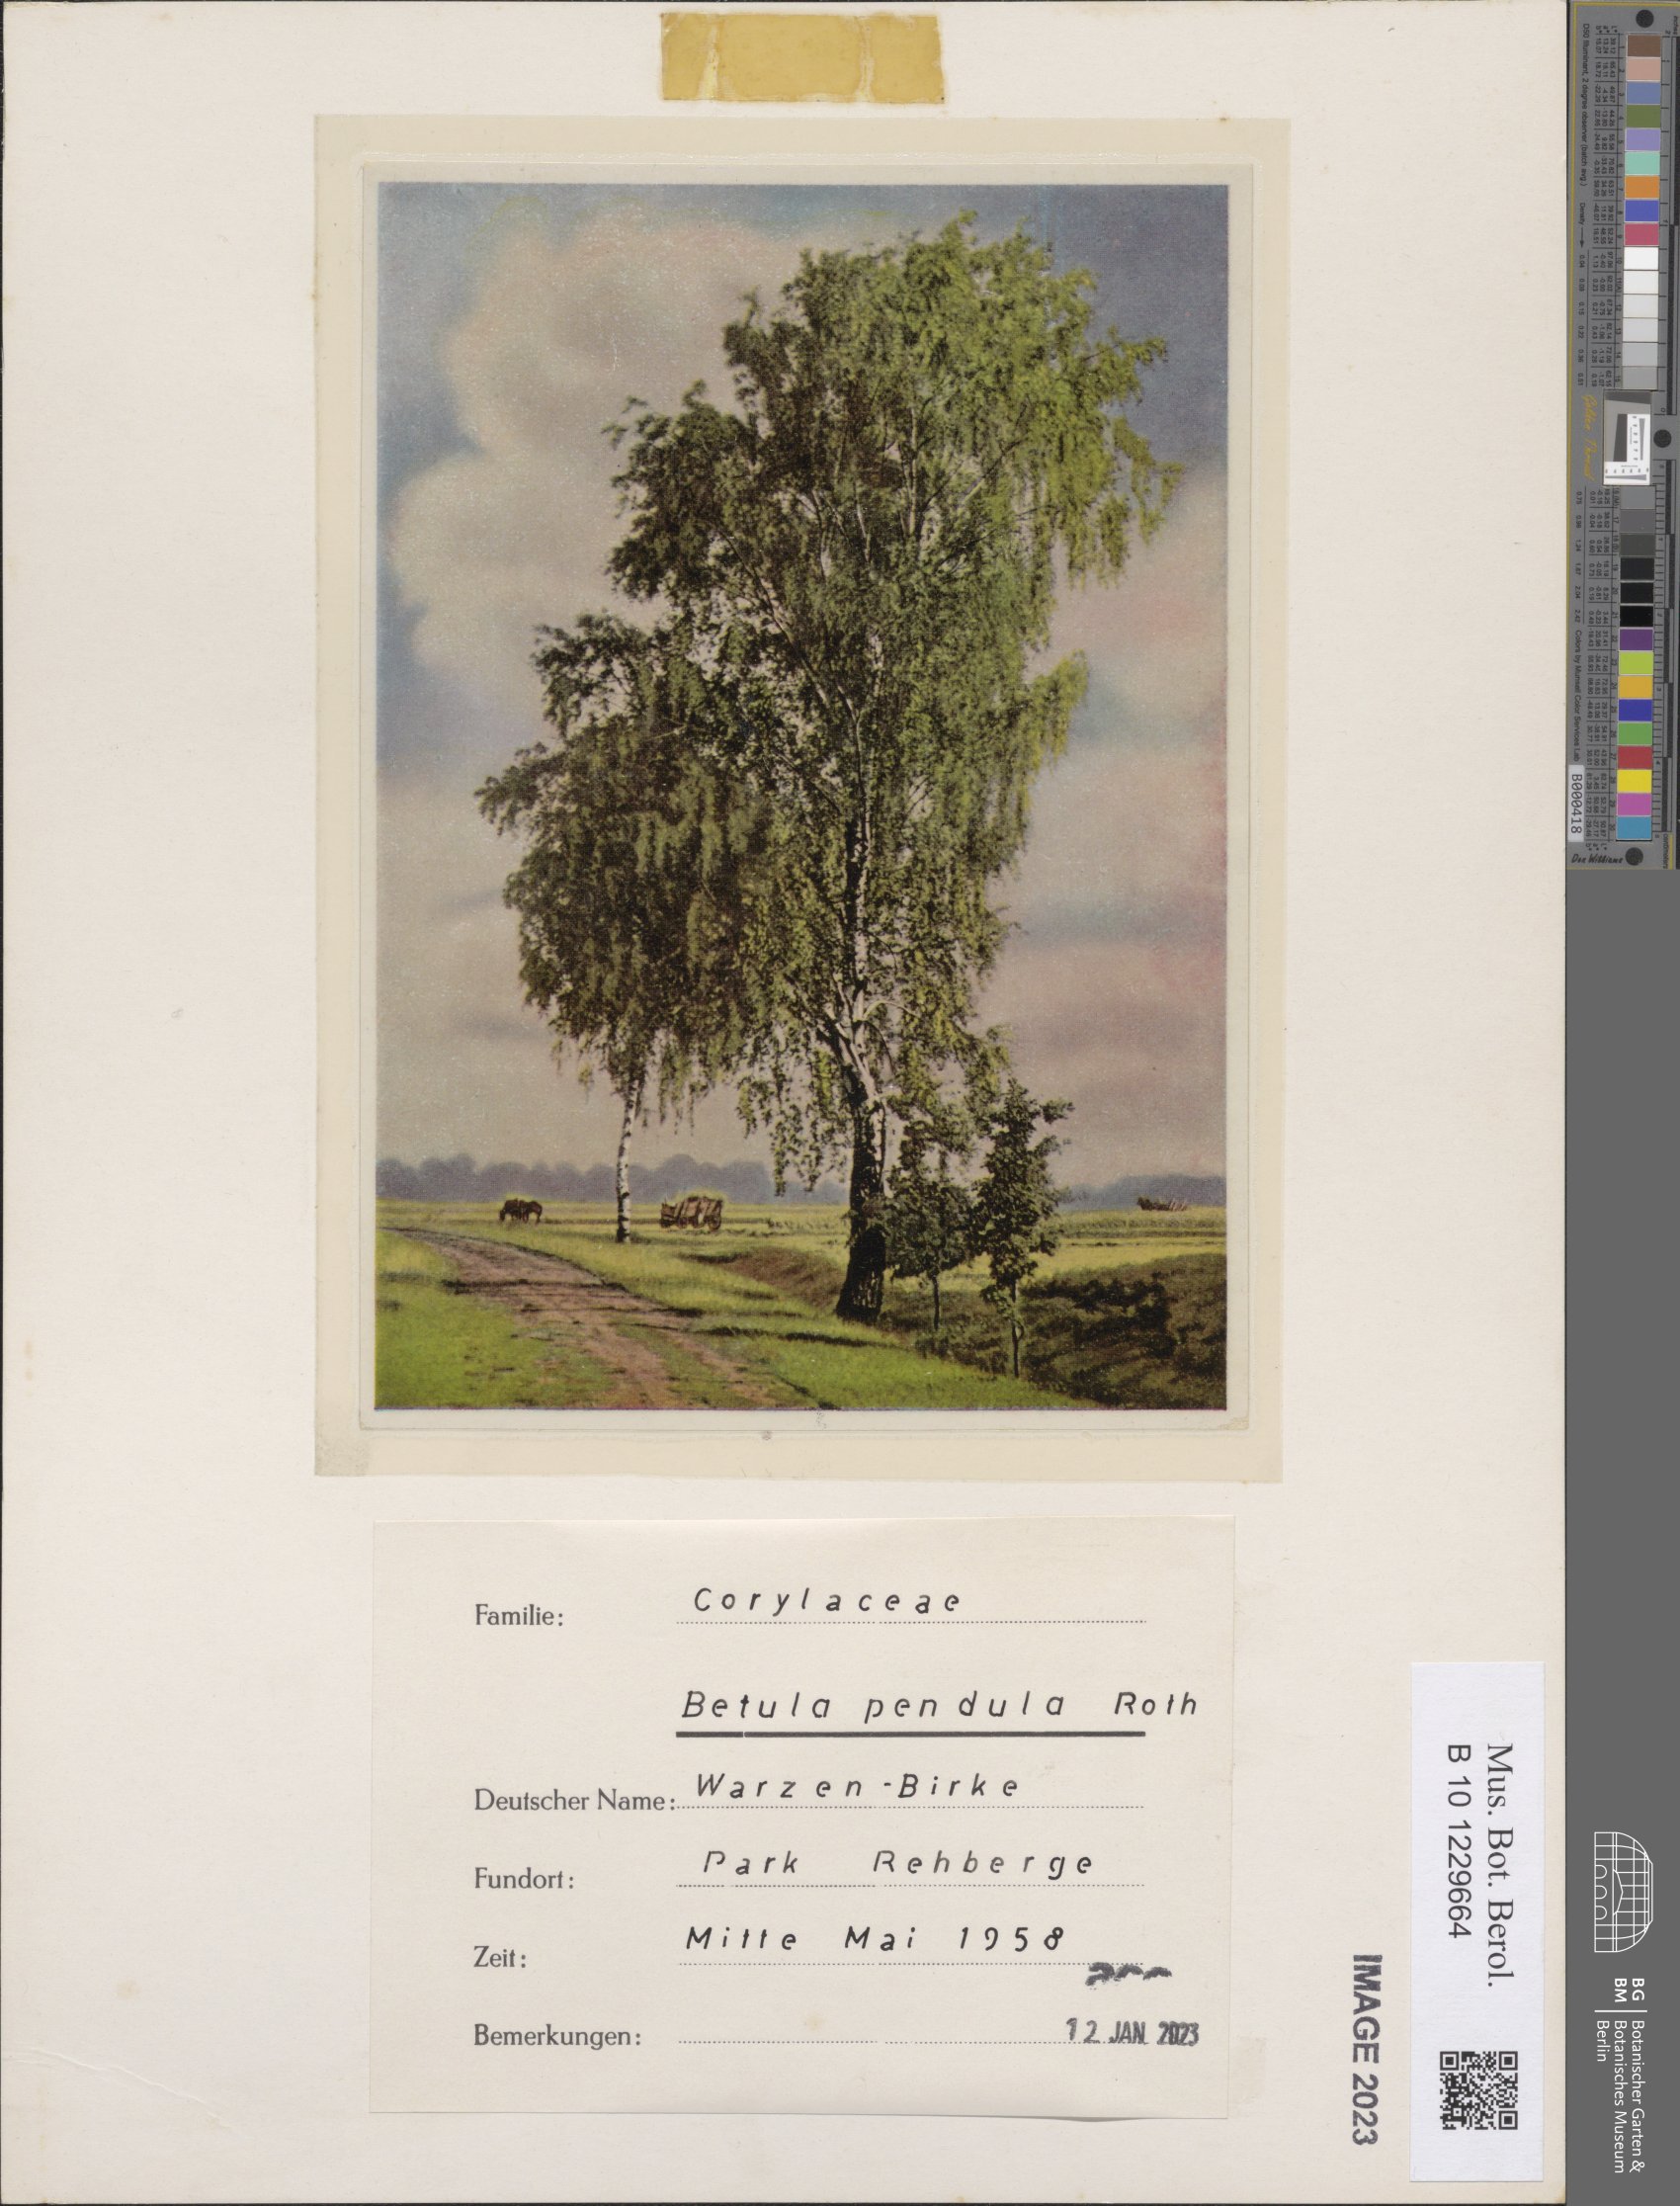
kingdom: Plantae
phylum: Tracheophyta
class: Magnoliopsida
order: Fagales
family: Betulaceae
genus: Betula
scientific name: Betula pendula
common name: Silver birch
